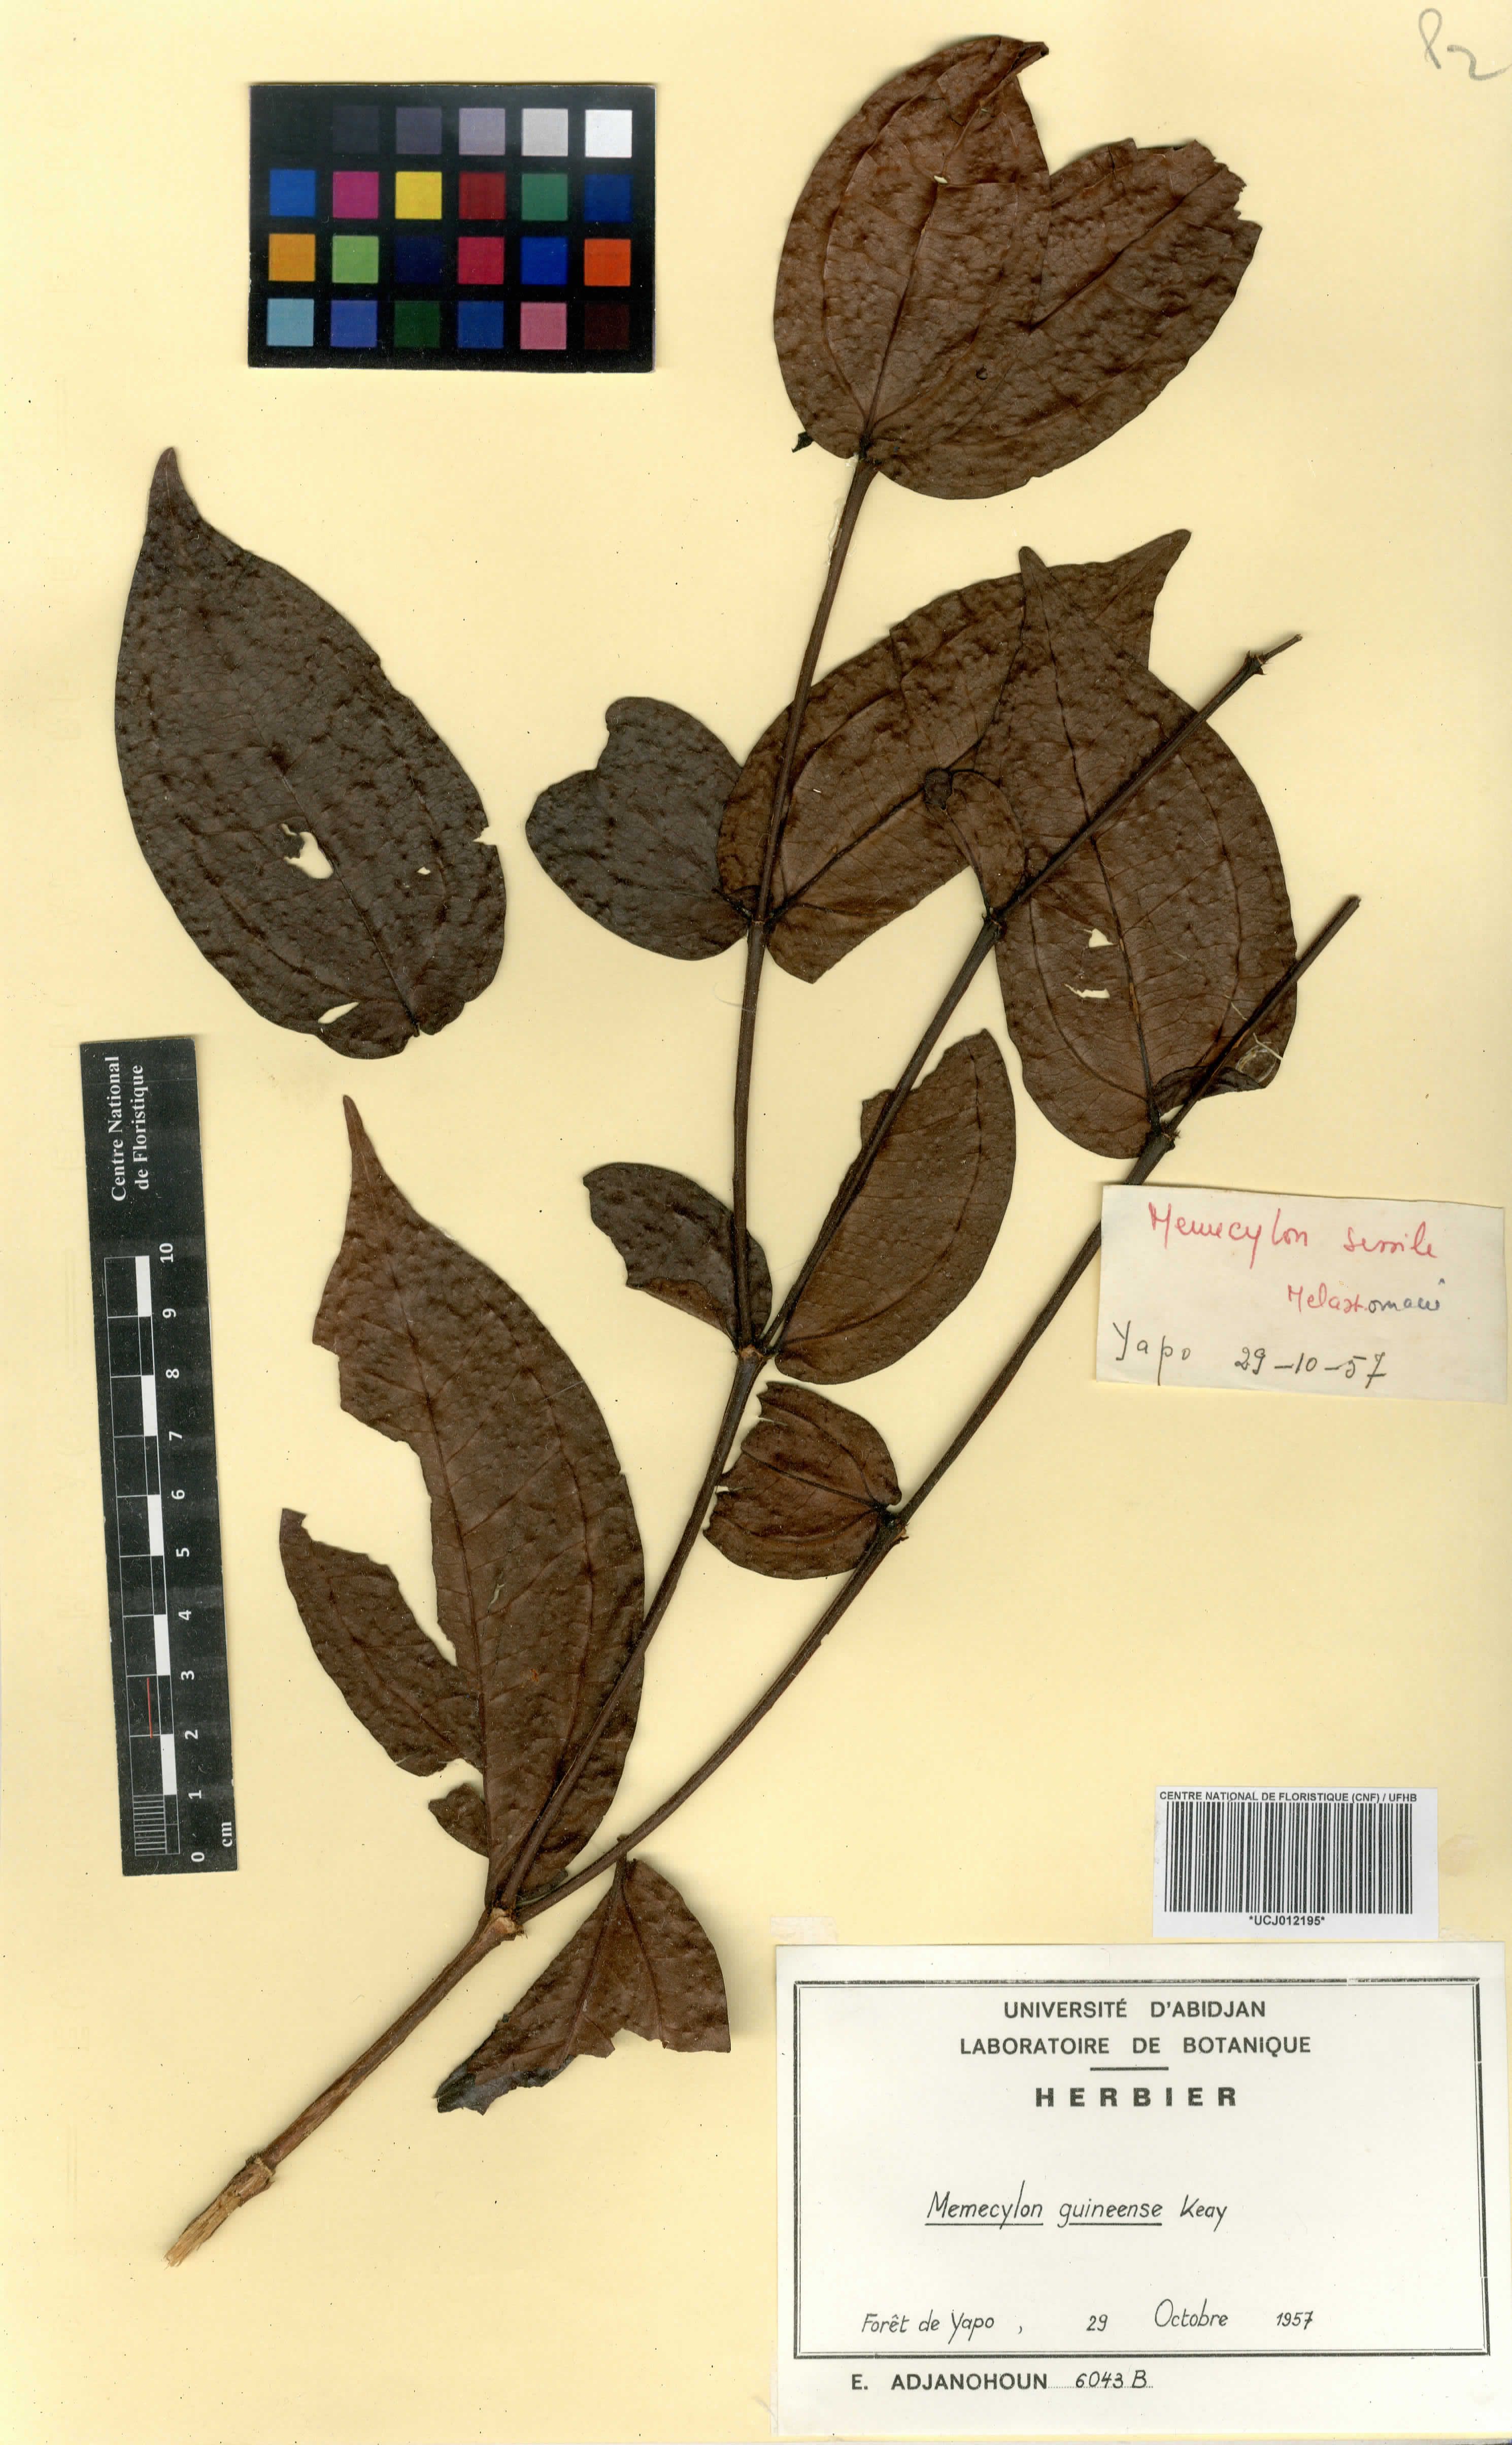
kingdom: Plantae
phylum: Tracheophyta
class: Magnoliopsida
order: Myrtales
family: Melastomataceae
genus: Warneckea
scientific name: Warneckea guineensis
